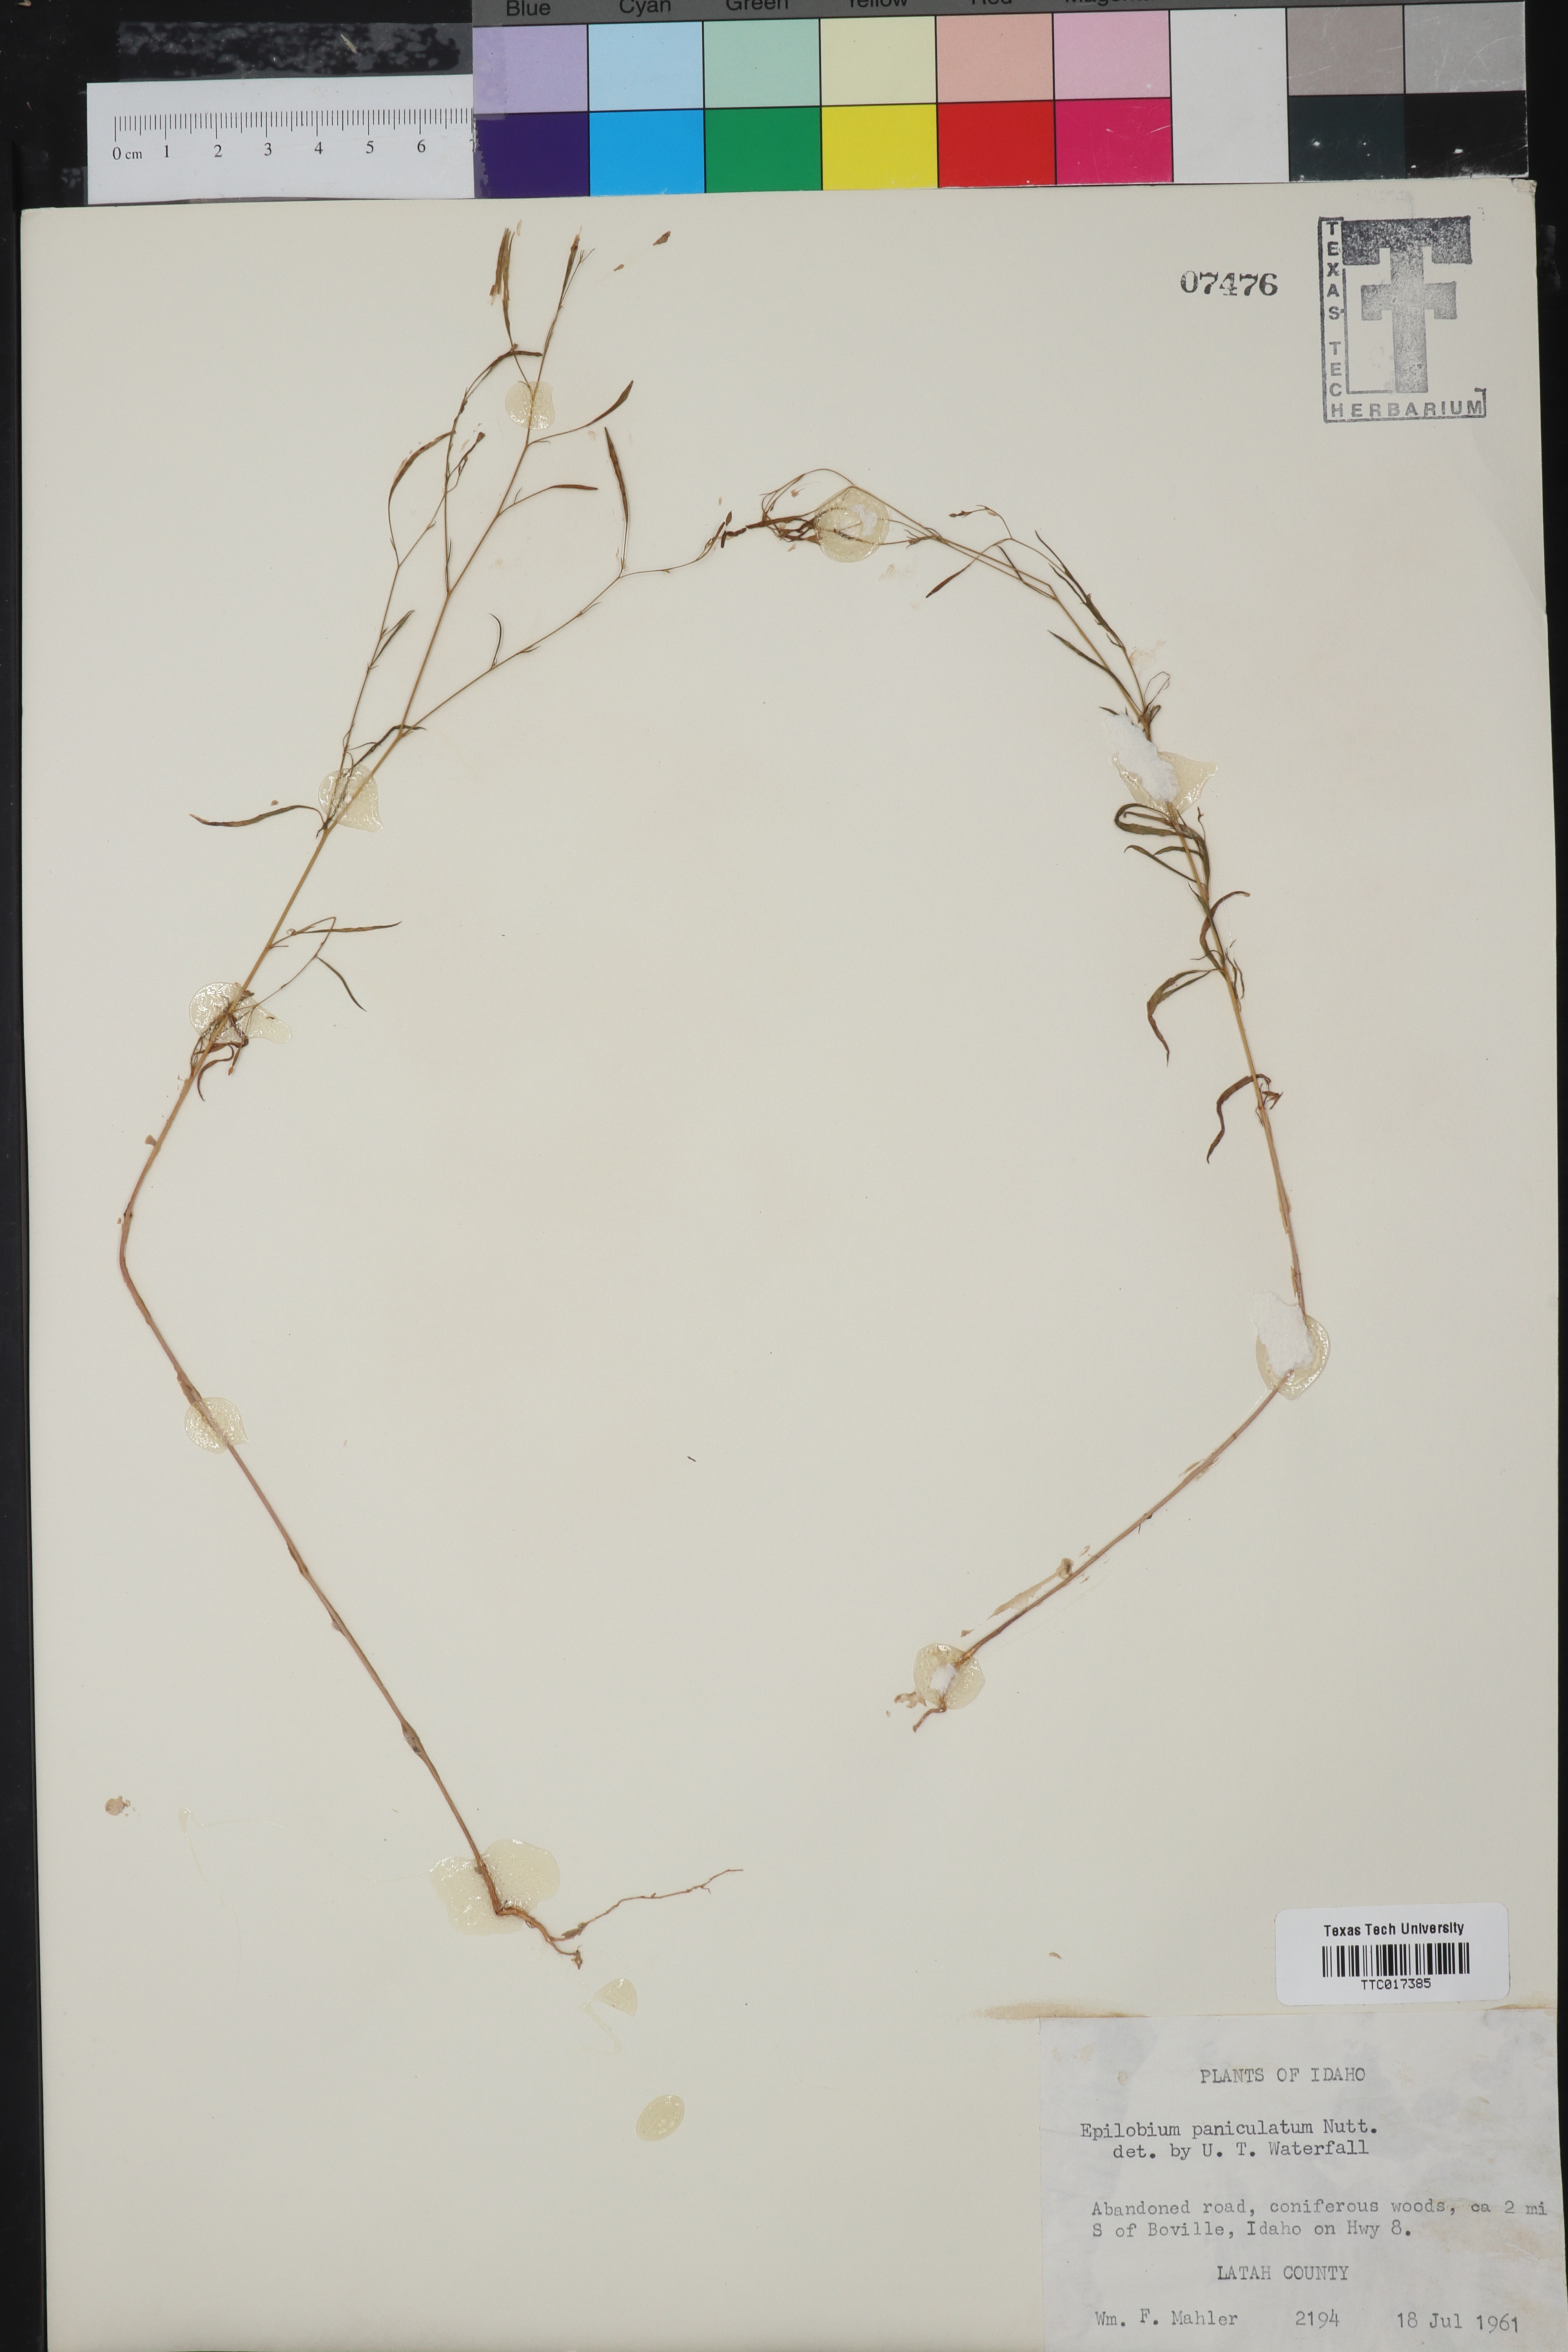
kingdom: Plantae
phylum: Tracheophyta
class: Magnoliopsida
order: Myrtales
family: Onagraceae
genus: Epilobium
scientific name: Epilobium brachycarpum
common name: Annual willowherb
